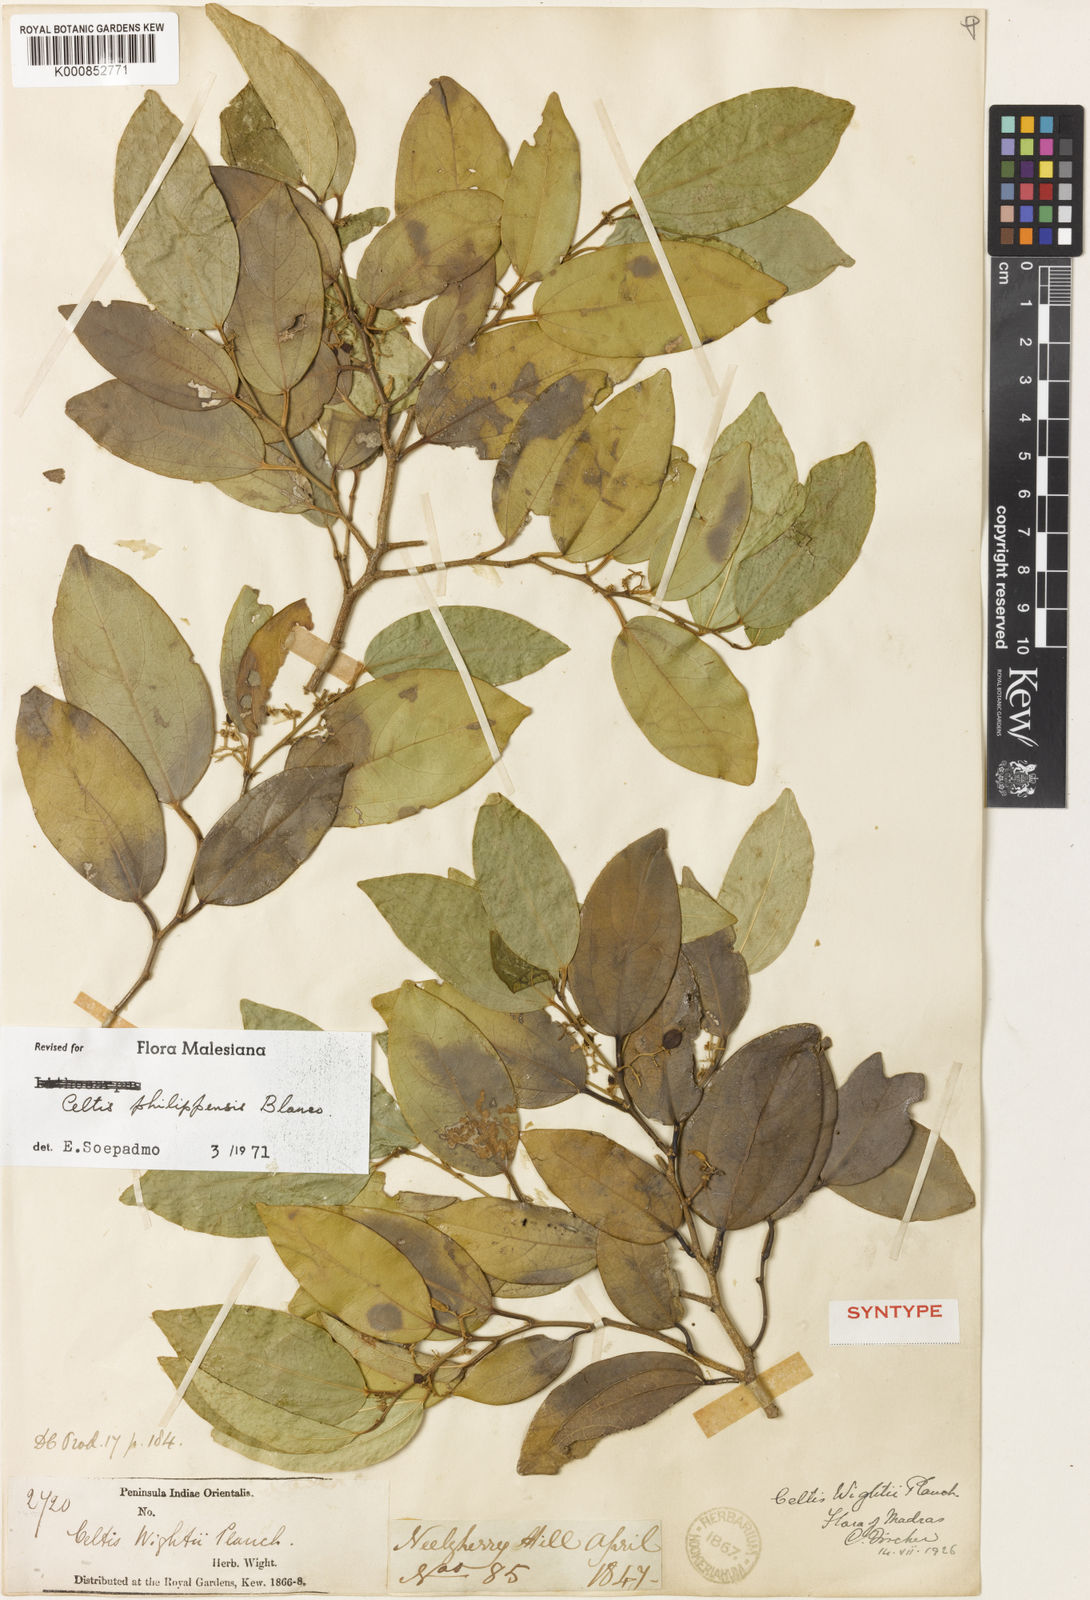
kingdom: Plantae
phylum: Tracheophyta
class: Magnoliopsida
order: Rosales
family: Cannabaceae
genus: Celtis
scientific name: Celtis philippensis
